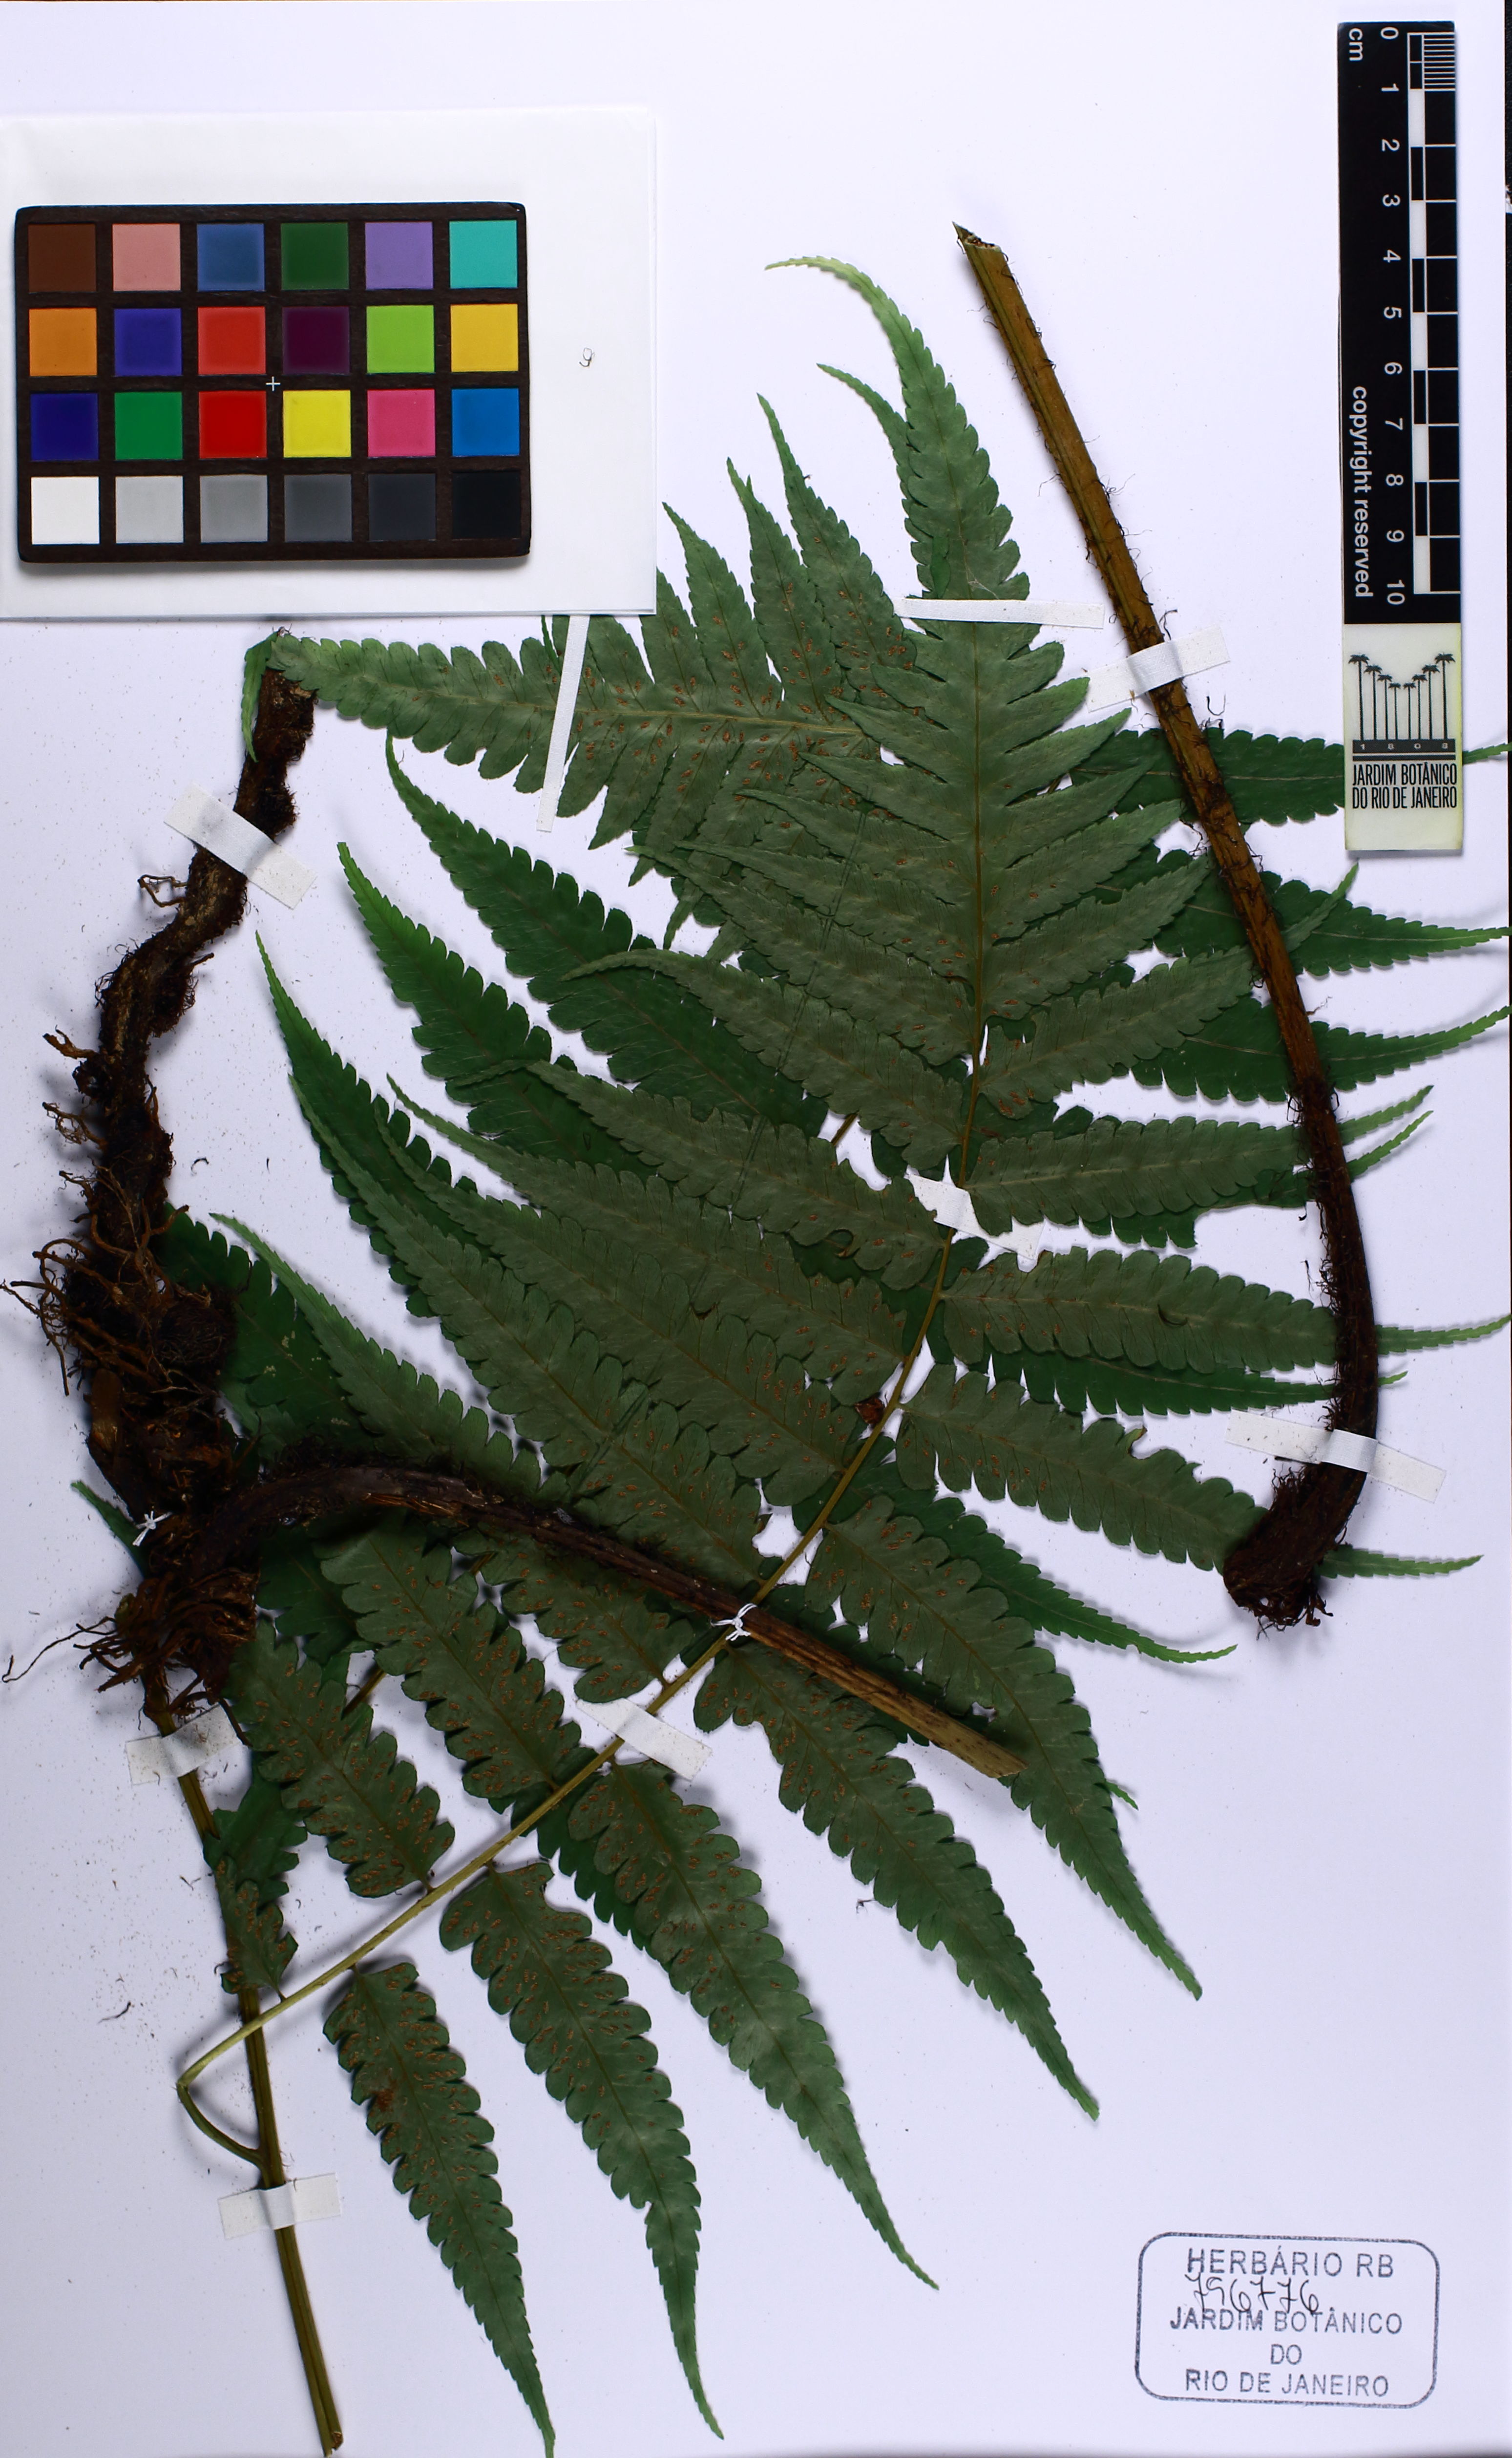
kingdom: Plantae
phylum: Tracheophyta
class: Polypodiopsida
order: Polypodiales
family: Athyriaceae
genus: Diplazium
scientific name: Diplazium taiwanense
